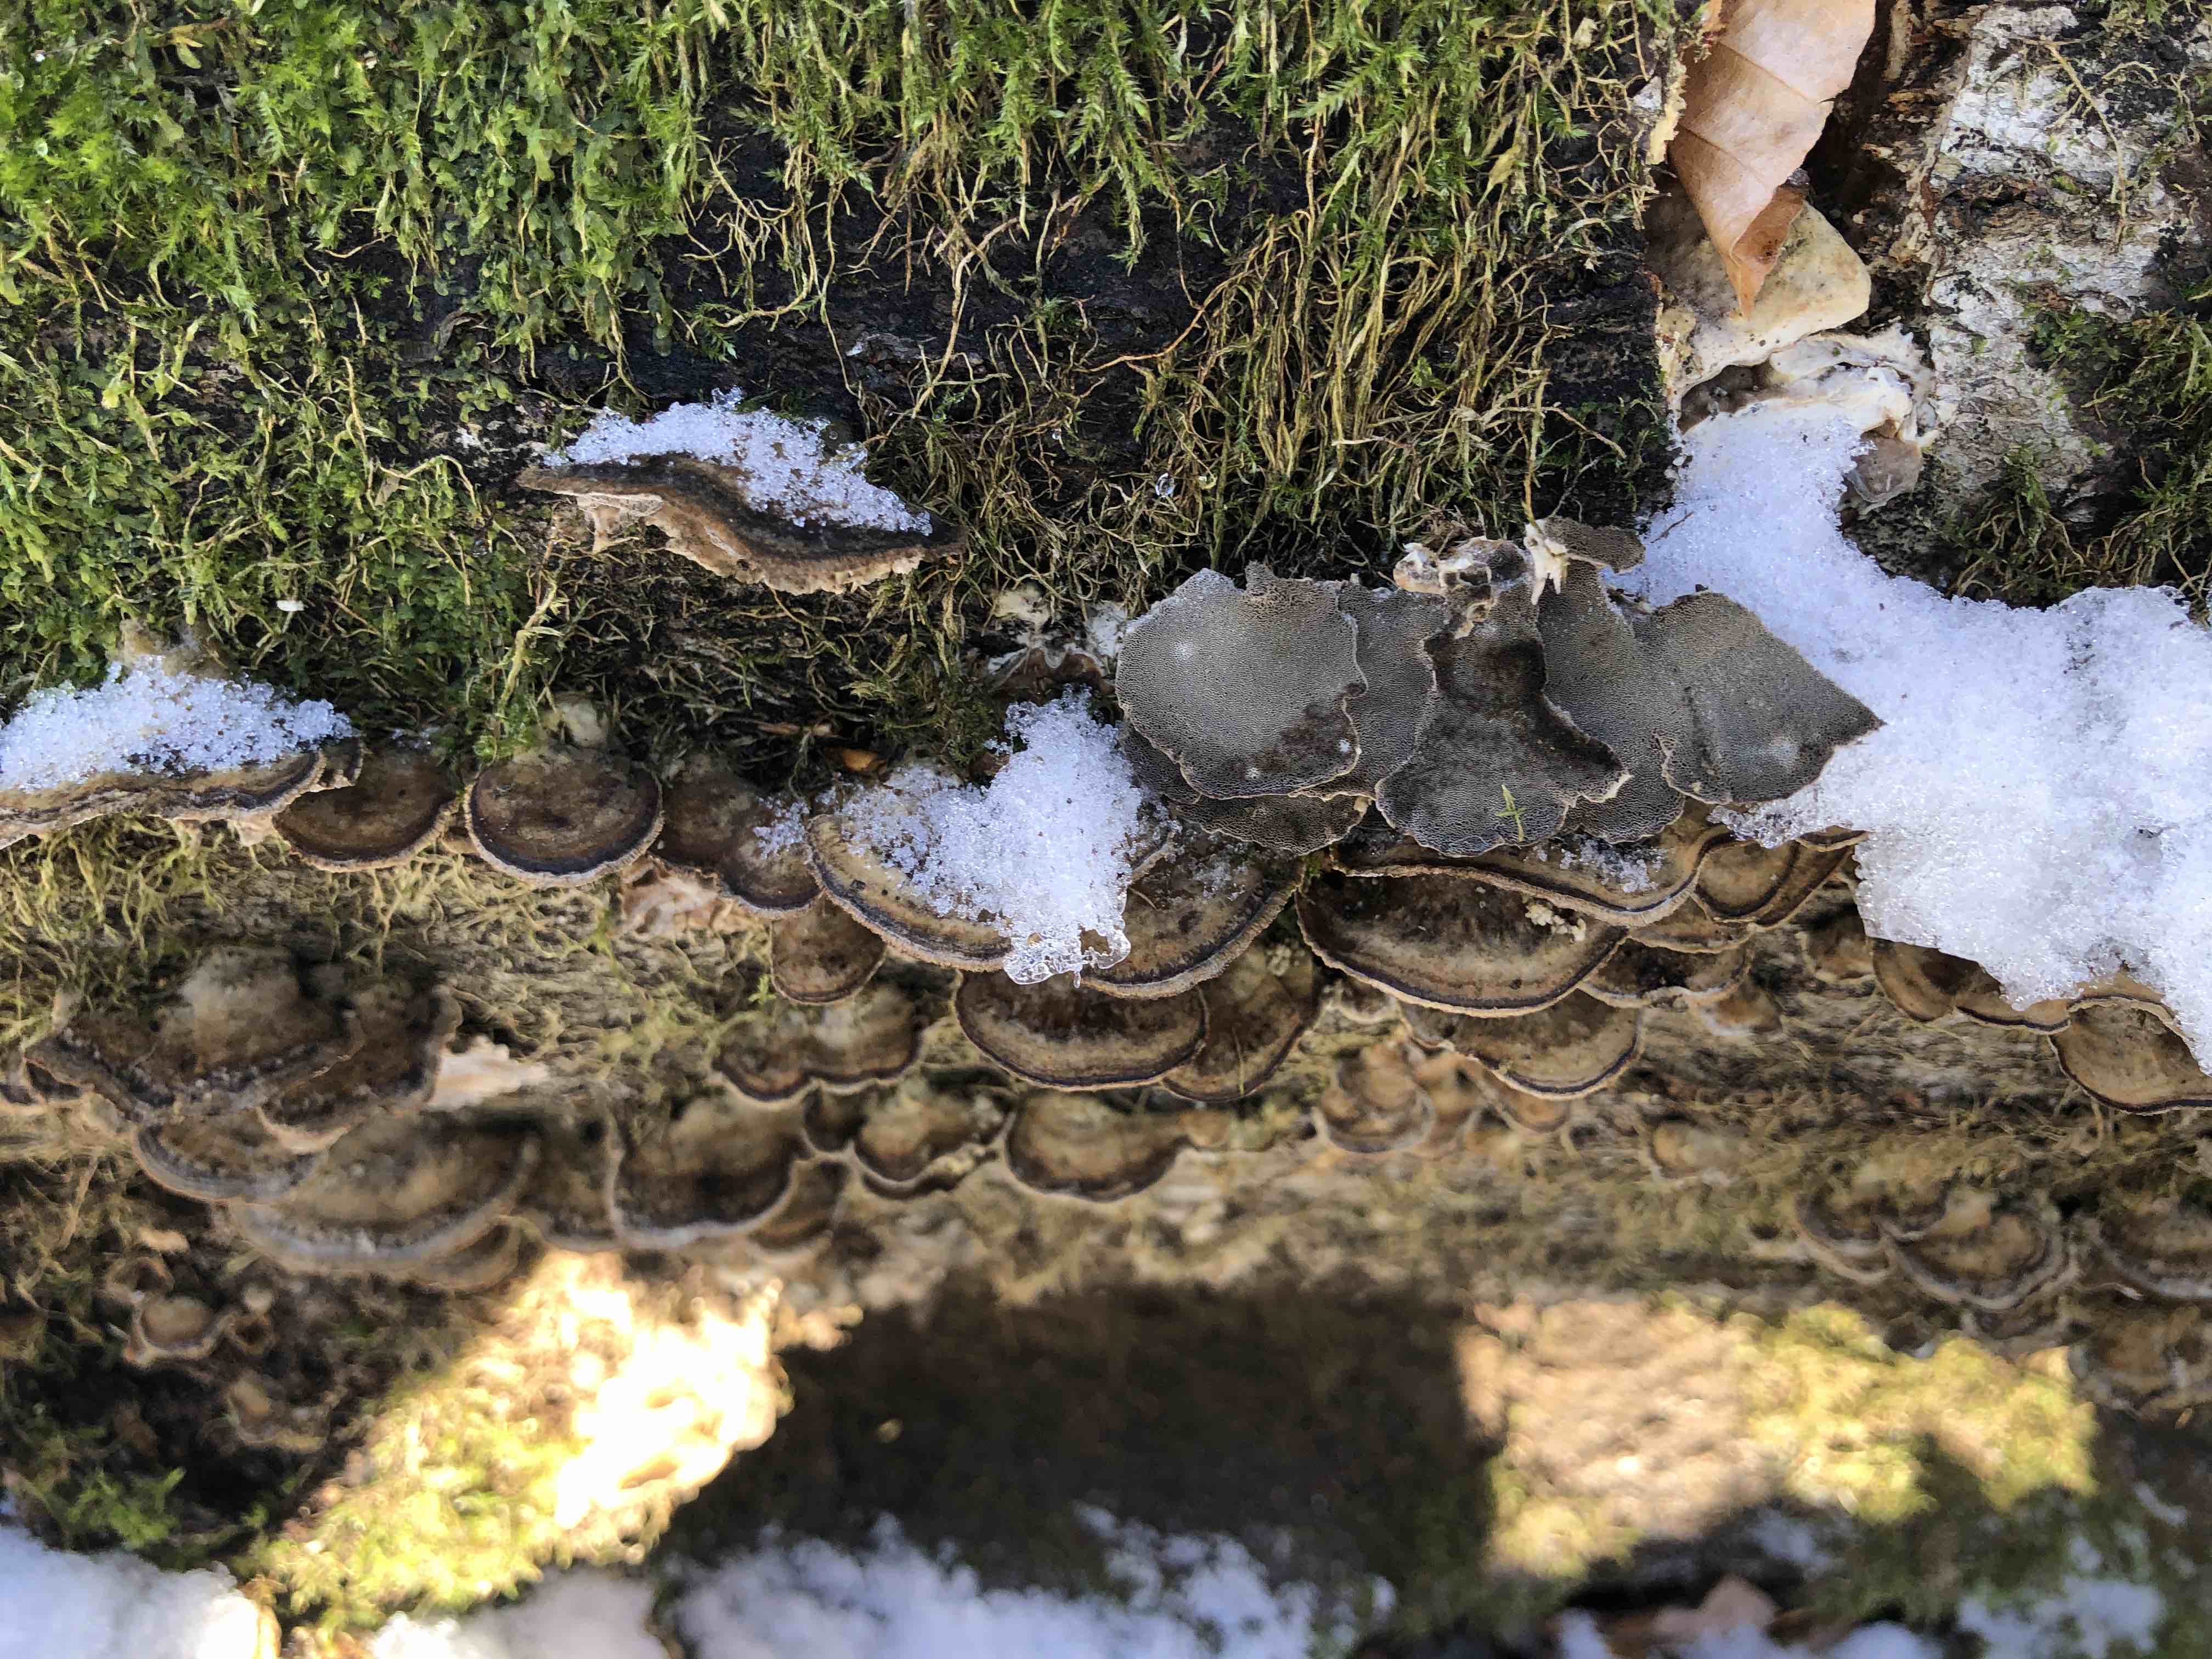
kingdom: Fungi
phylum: Basidiomycota
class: Agaricomycetes
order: Polyporales
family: Phanerochaetaceae
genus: Bjerkandera
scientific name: Bjerkandera adusta
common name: sveden sodporesvamp
